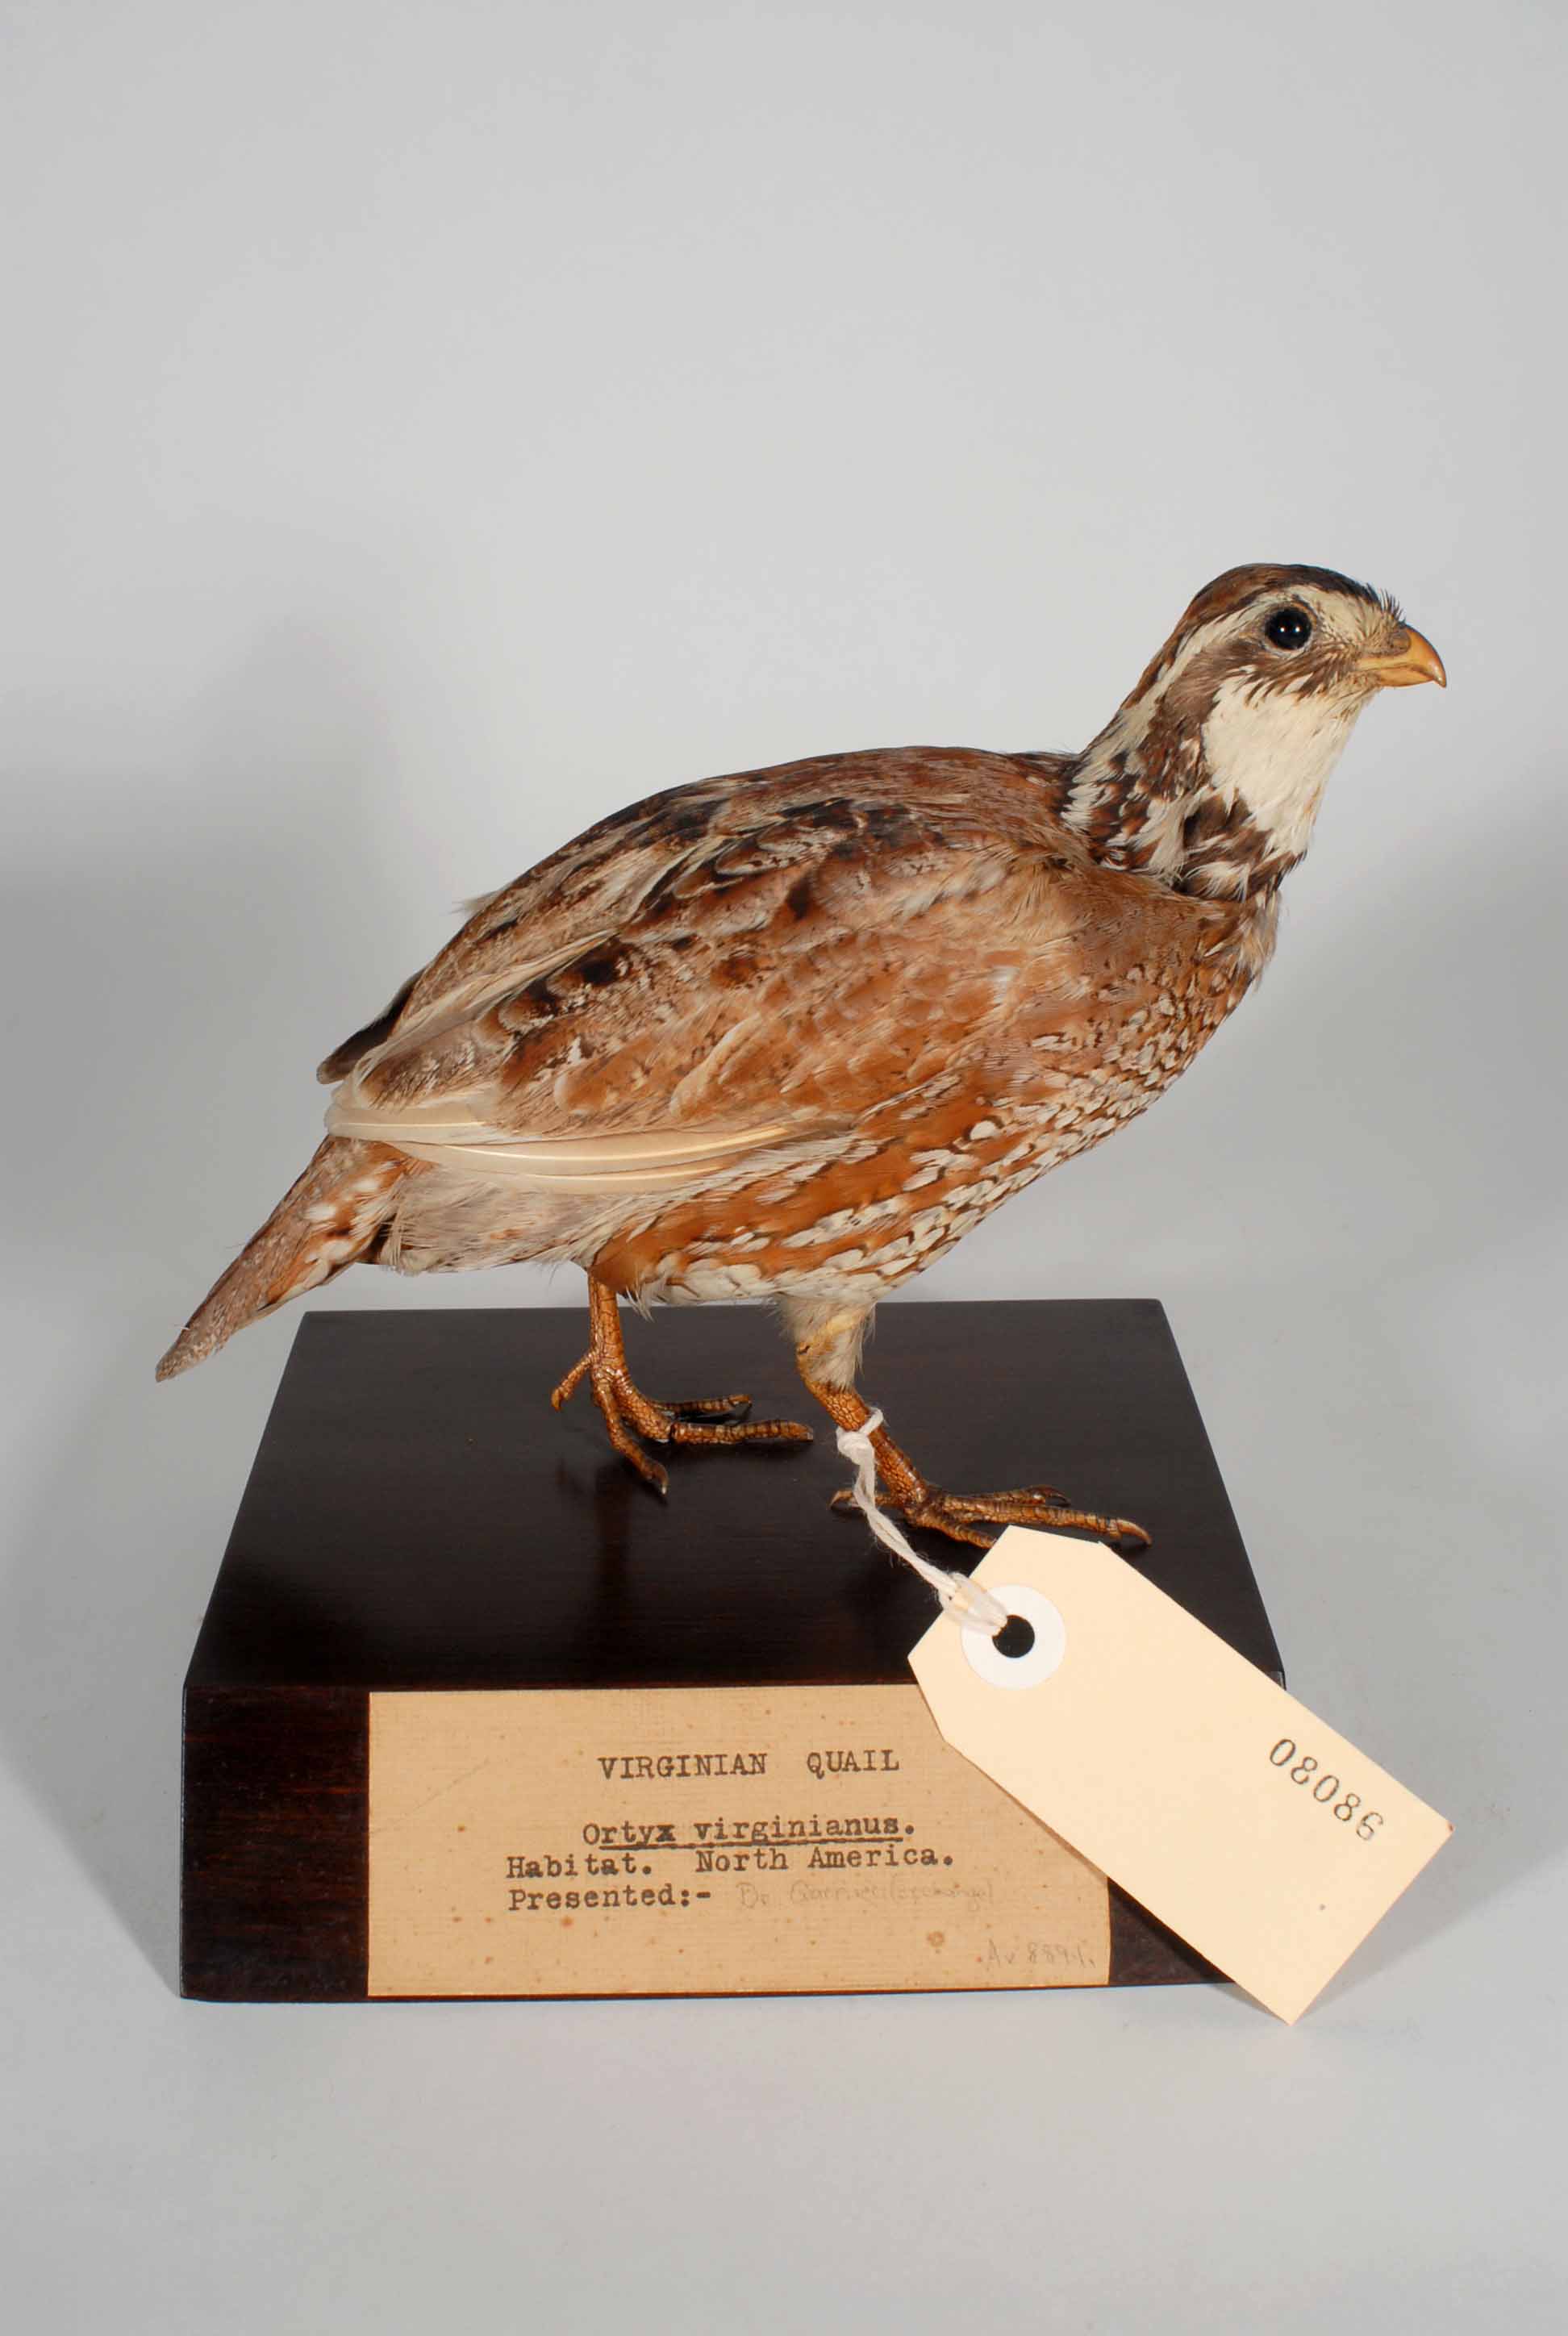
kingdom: Animalia
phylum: Chordata
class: Aves
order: Galliformes
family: Odontophoridae
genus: Colinus
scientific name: Colinus virginianus
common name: Northern bobwhite
